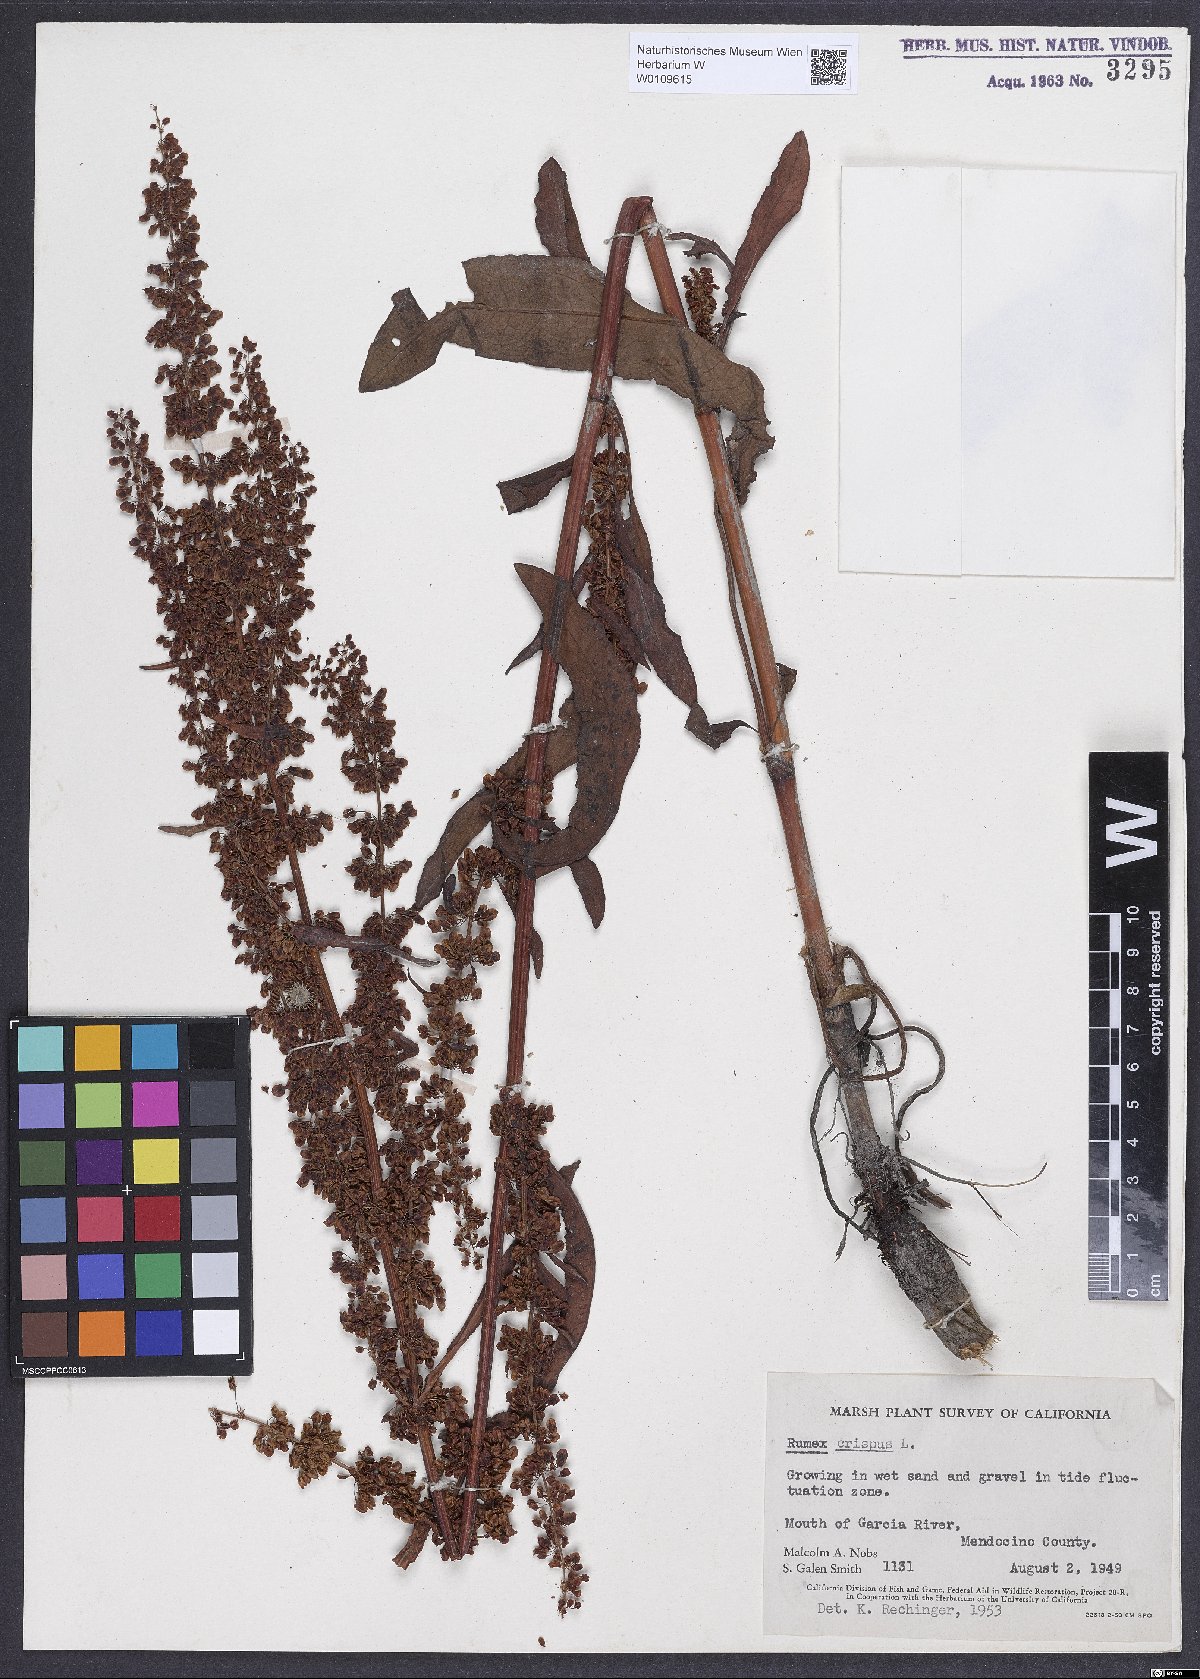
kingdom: Plantae
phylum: Tracheophyta
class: Magnoliopsida
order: Caryophyllales
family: Polygonaceae
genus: Rumex
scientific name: Rumex crispus
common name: Curled dock
